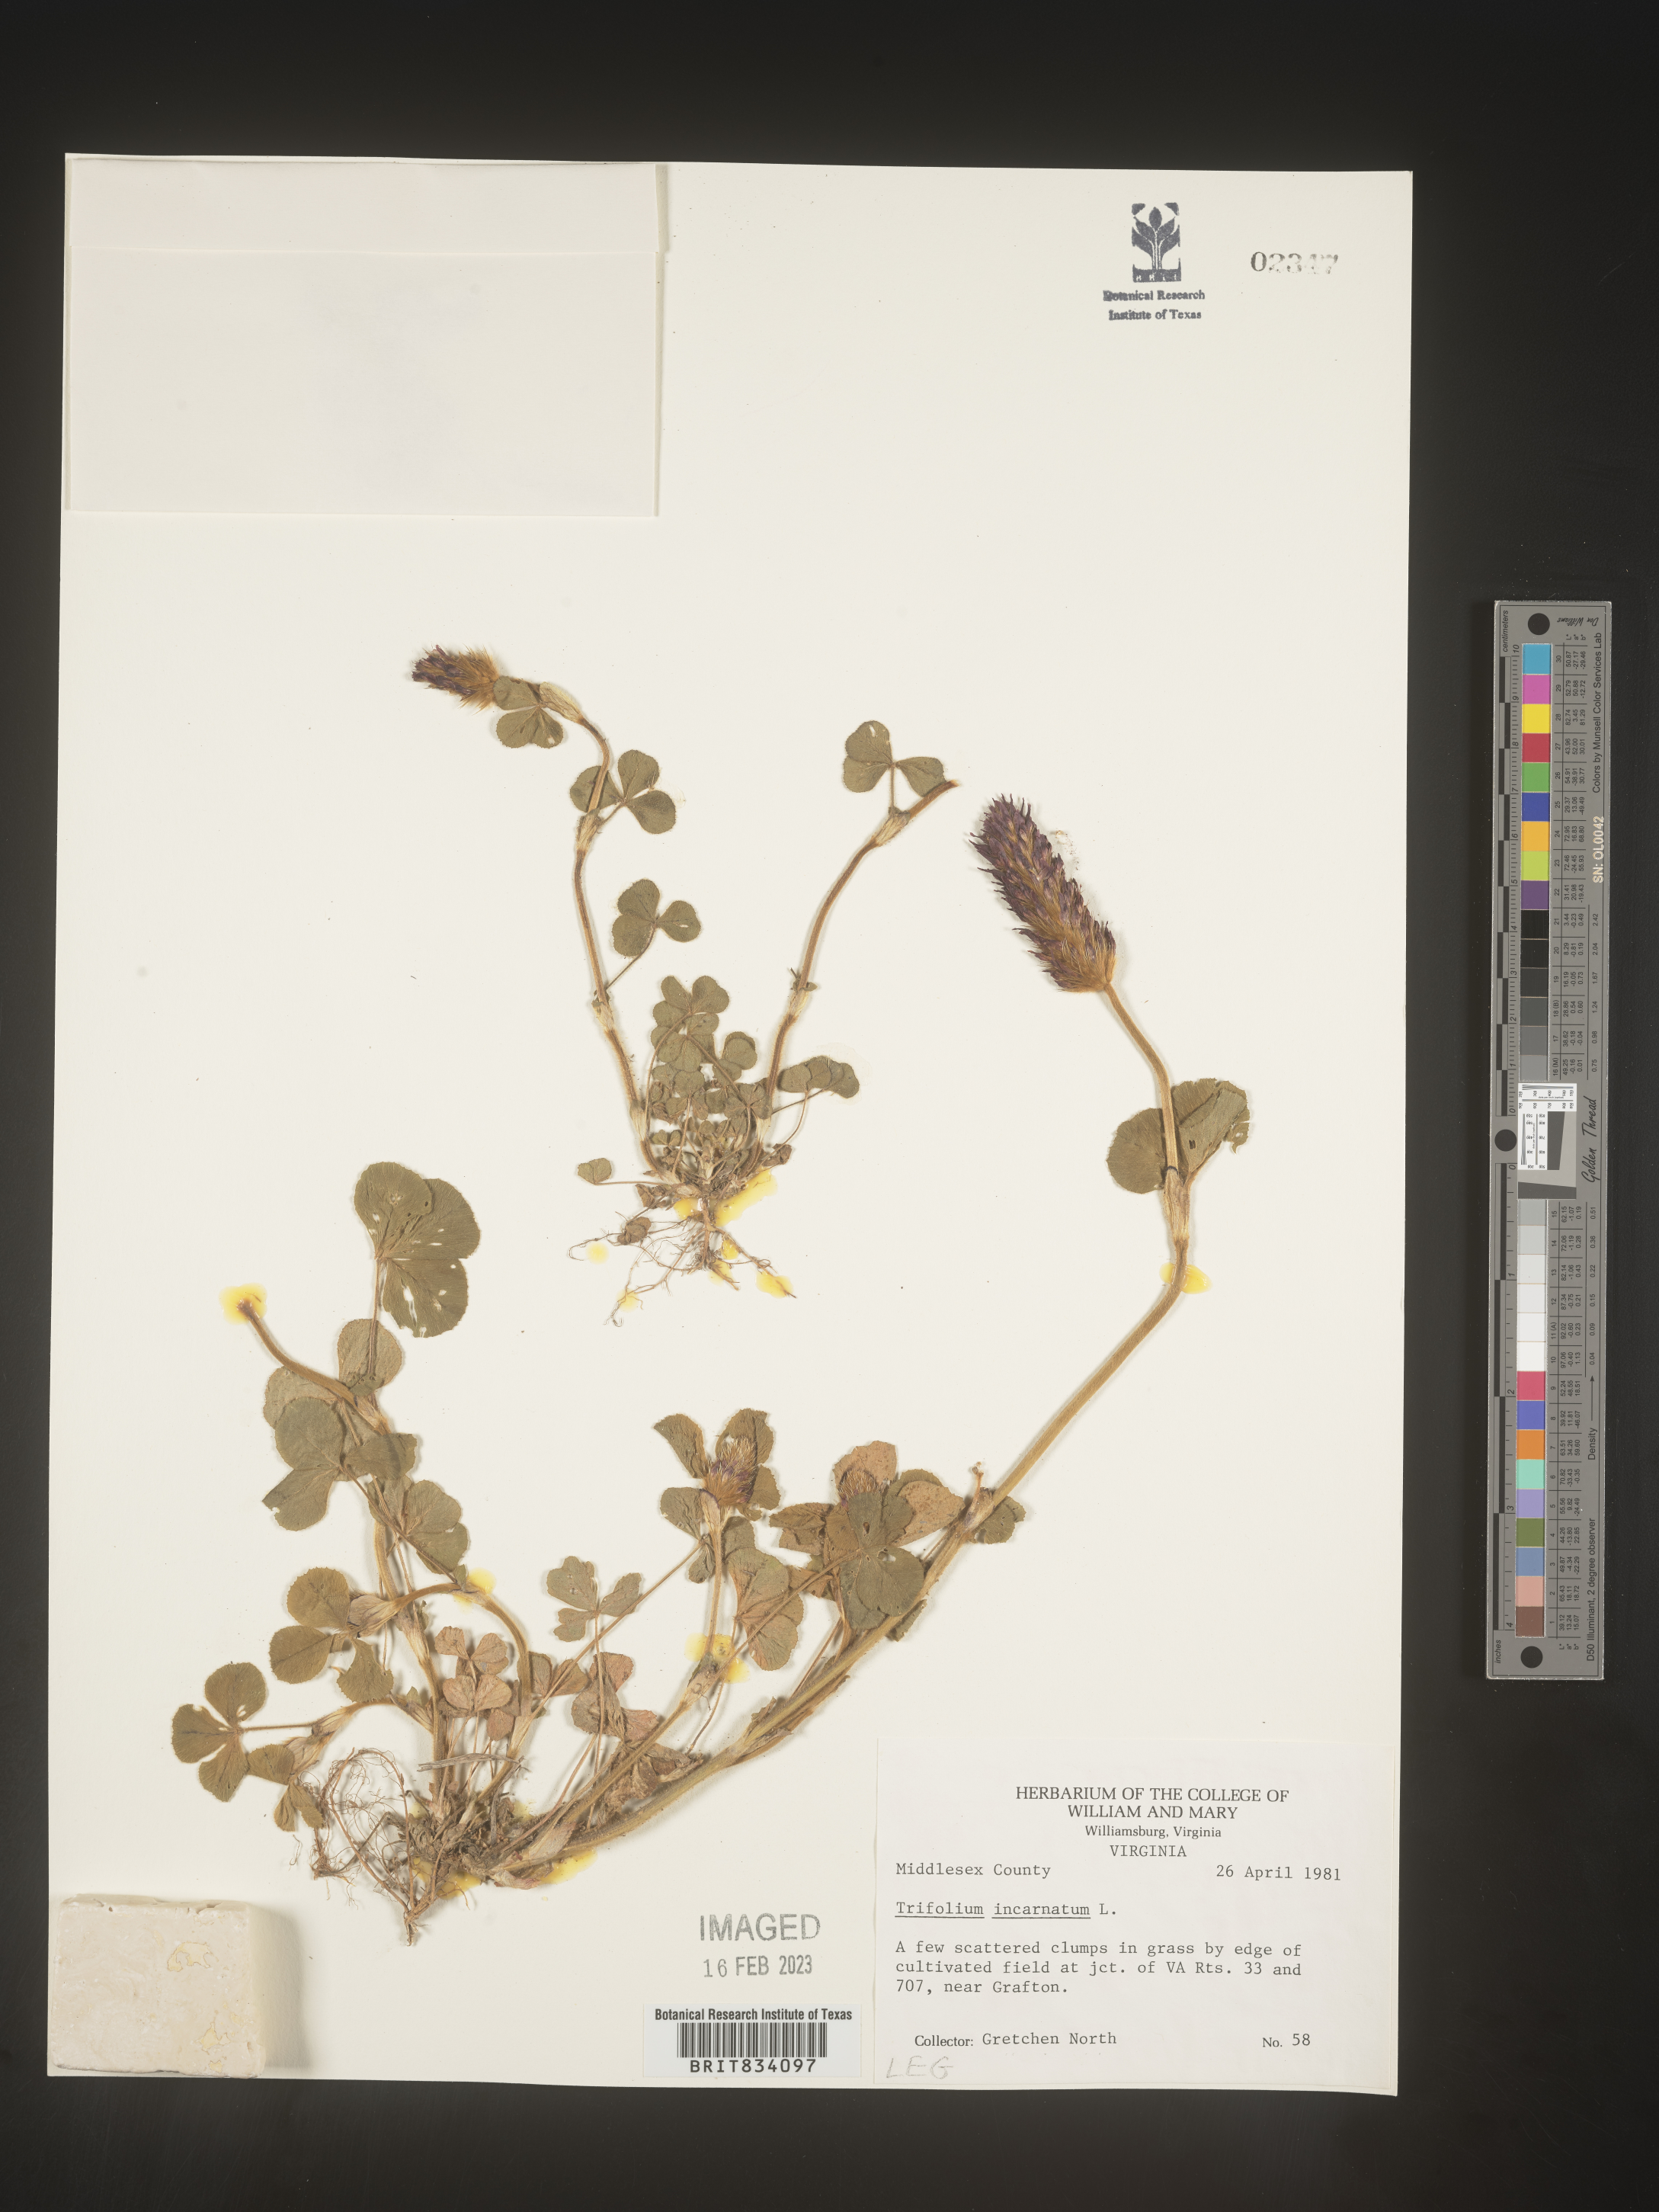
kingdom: Plantae
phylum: Tracheophyta
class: Magnoliopsida
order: Fabales
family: Fabaceae
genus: Trifolium
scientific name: Trifolium incarnatum
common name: Crimson clover
